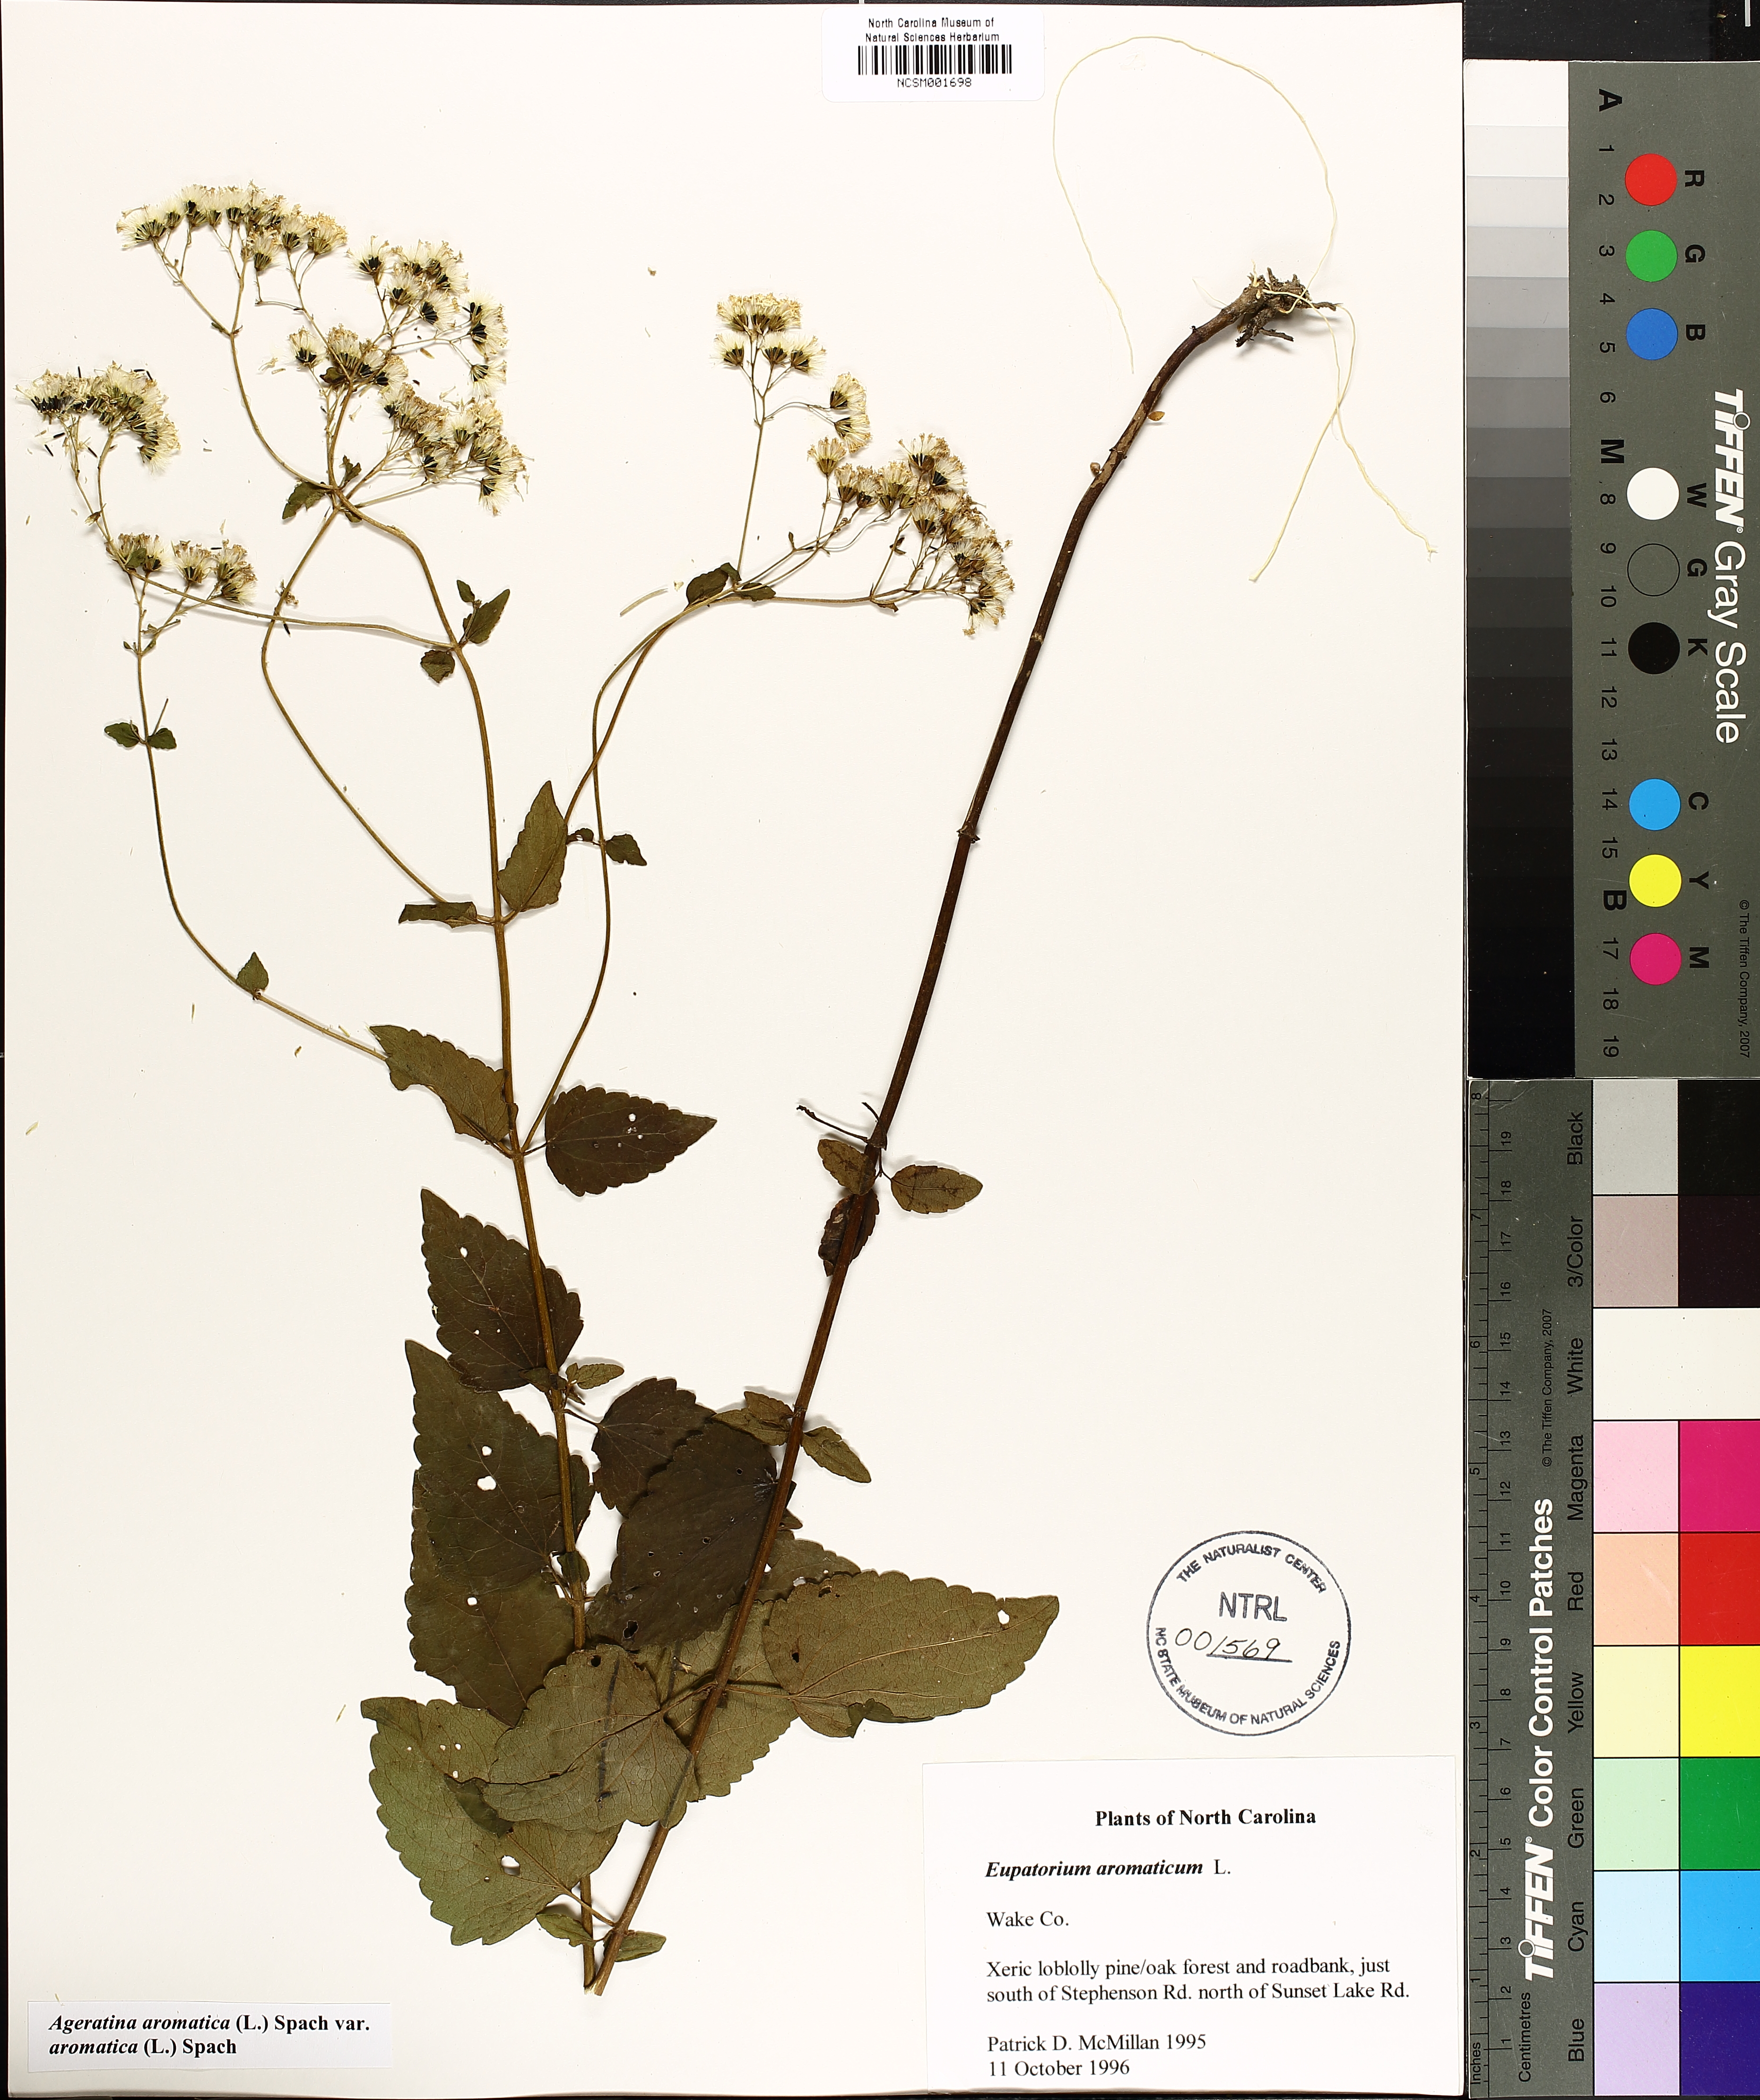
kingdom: Plantae
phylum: Tracheophyta
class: Magnoliopsida
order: Asterales
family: Asteraceae
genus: Ageratina
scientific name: Ageratina aromatica
